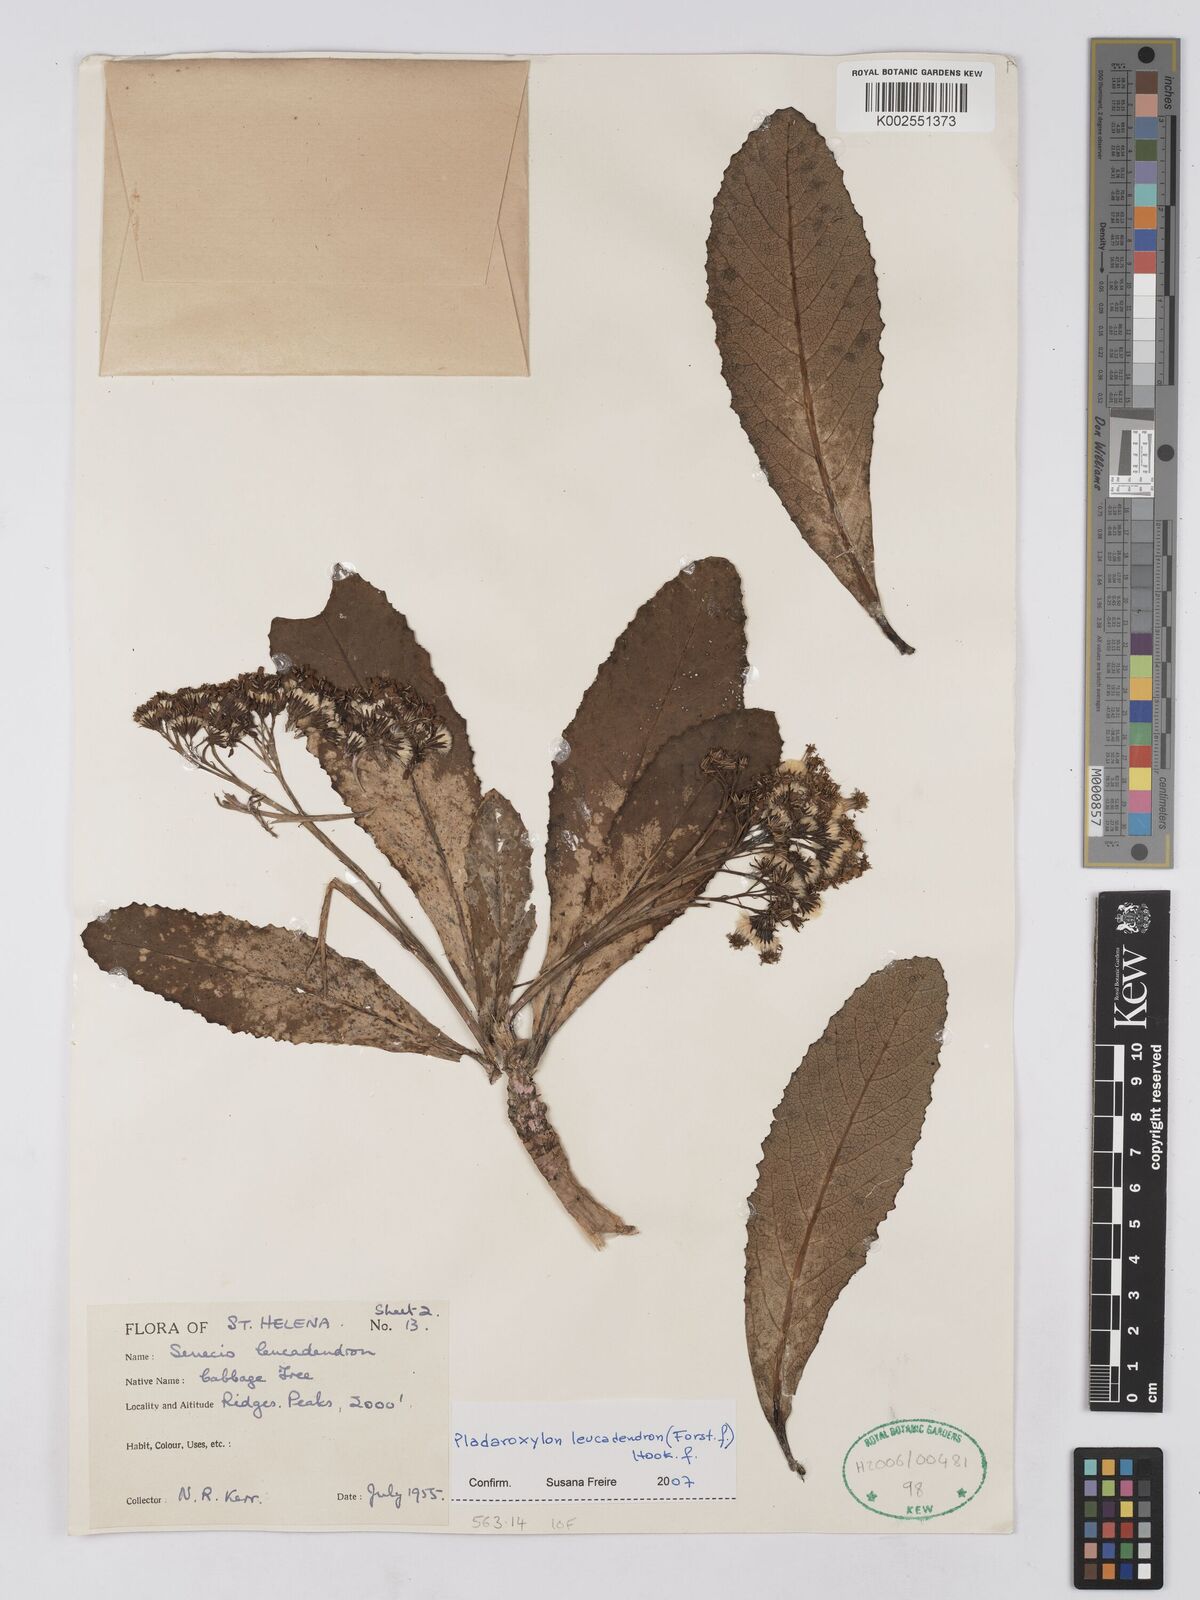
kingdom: Plantae
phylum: Tracheophyta
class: Magnoliopsida
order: Asterales
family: Asteraceae
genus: Pladaroxylon
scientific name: Pladaroxylon leucadendron
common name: He cabbage tree
